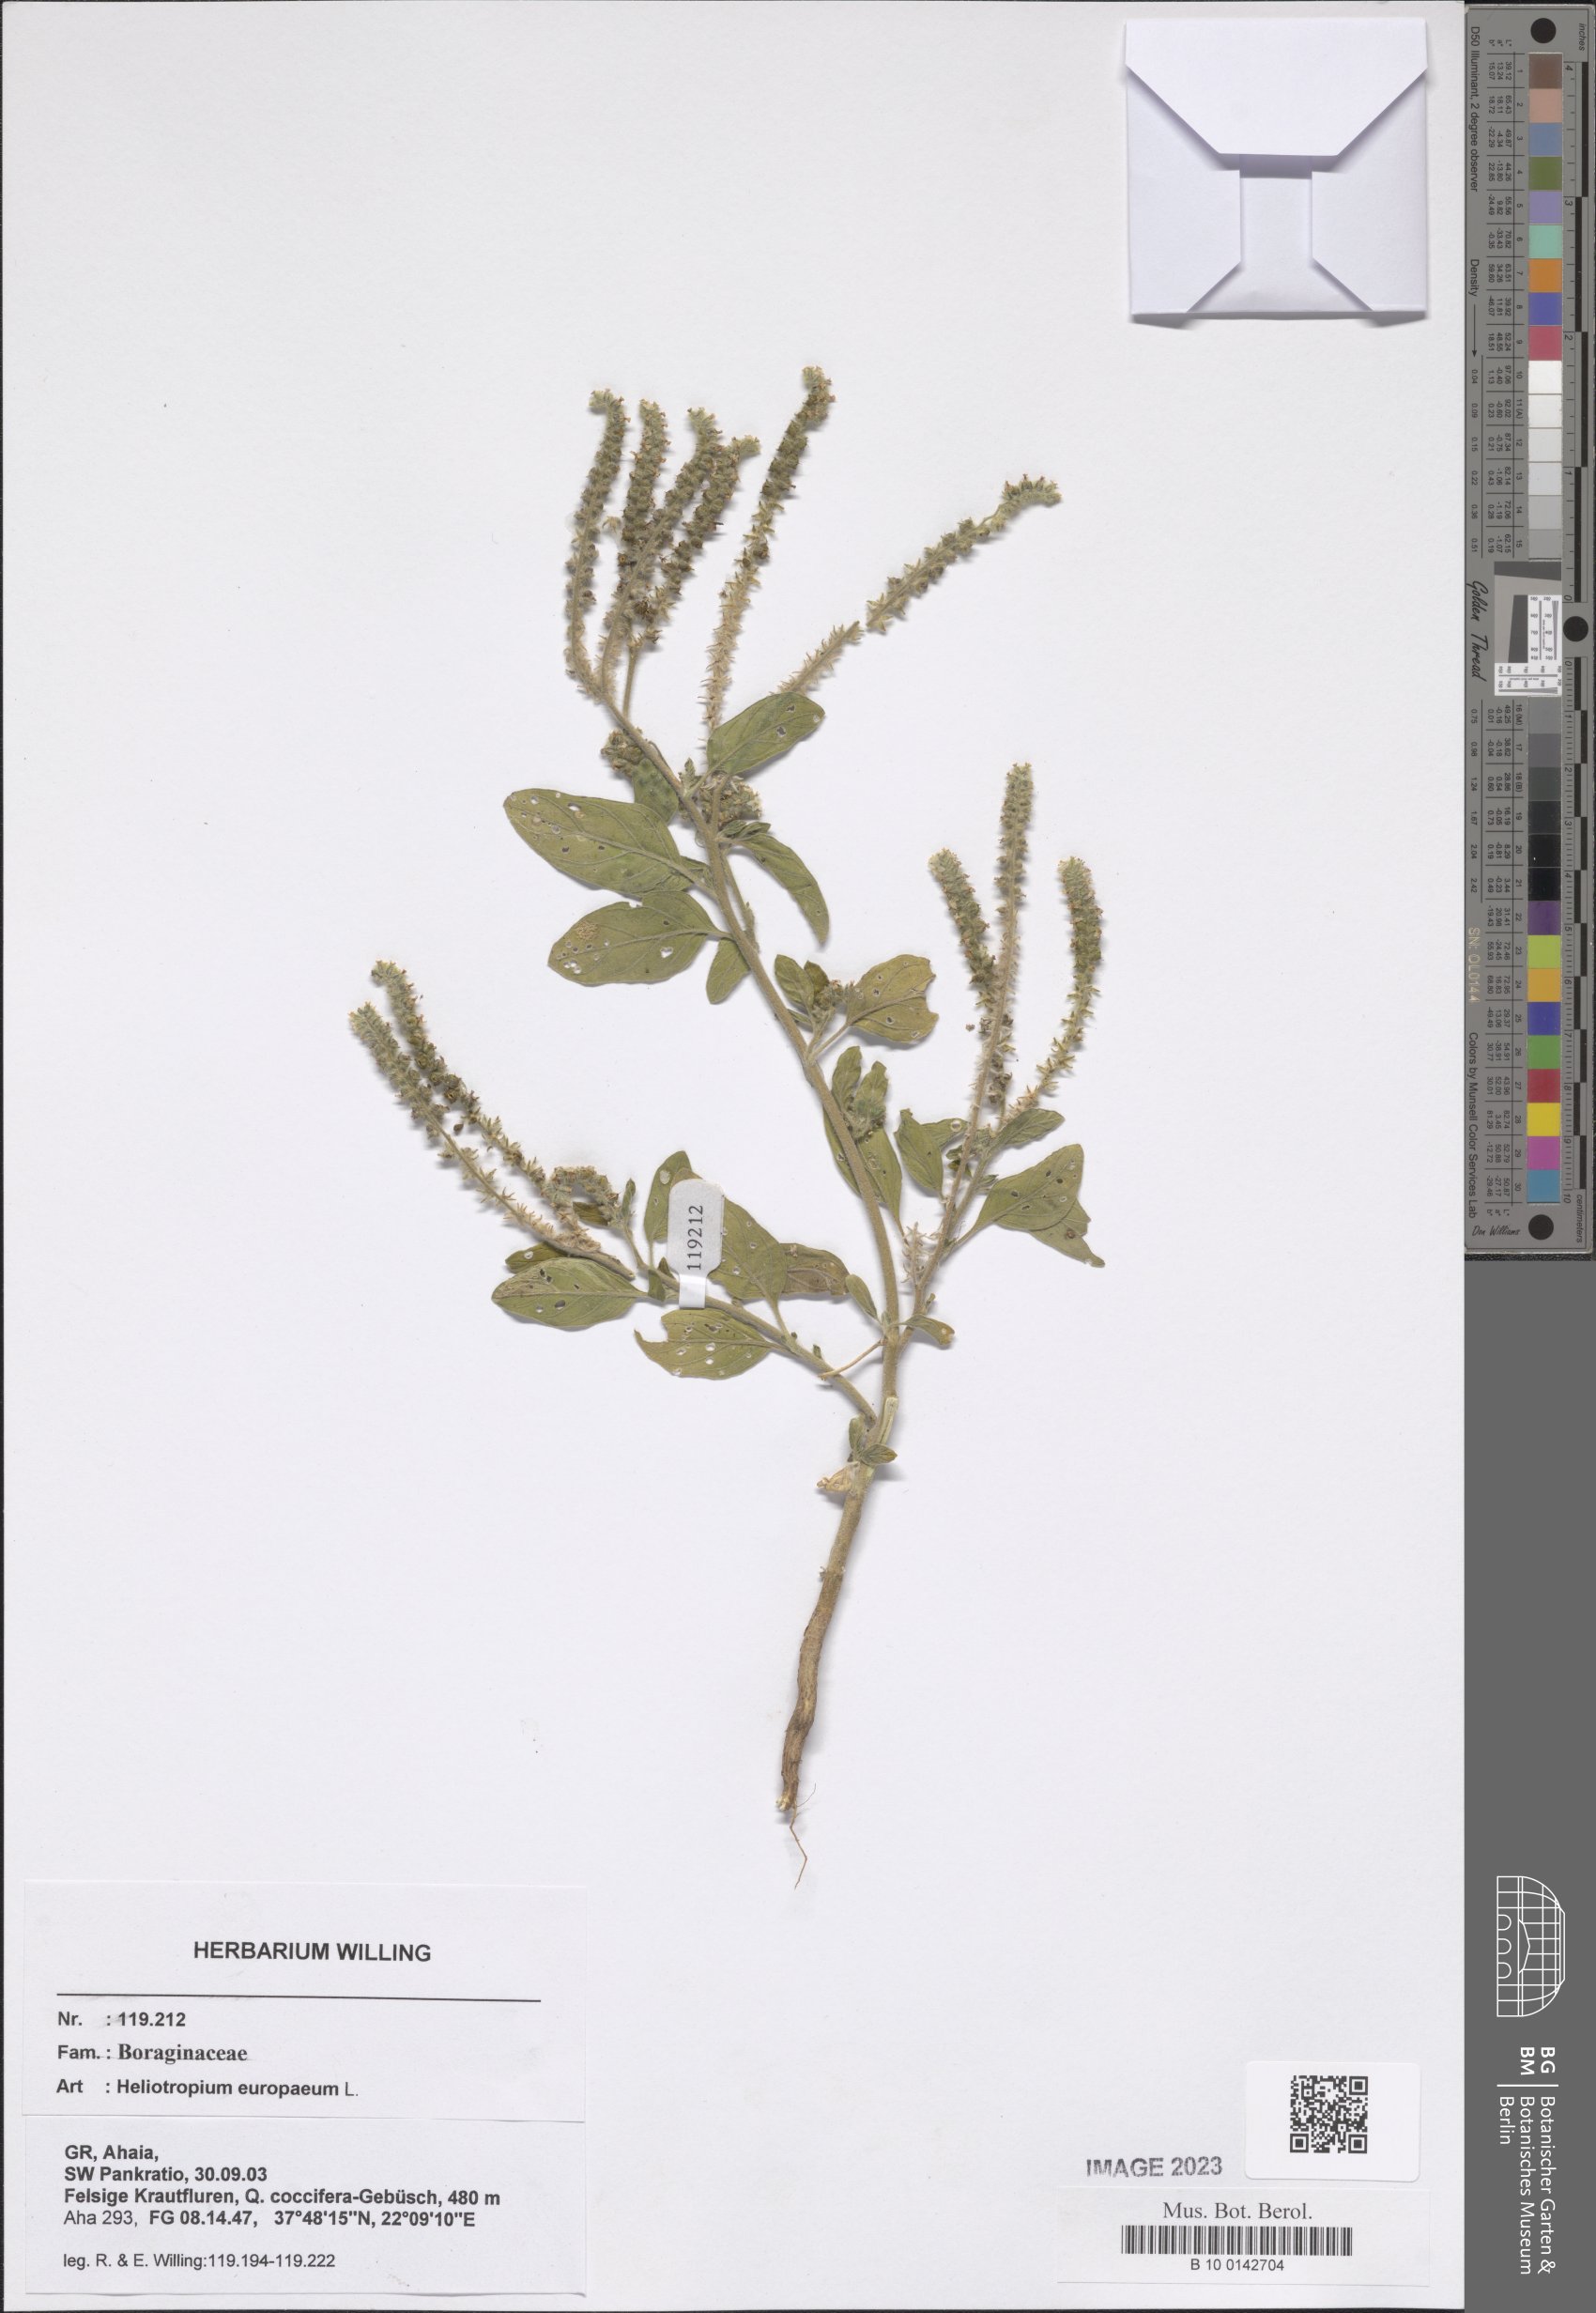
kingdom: Plantae
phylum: Tracheophyta
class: Magnoliopsida
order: Boraginales
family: Heliotropiaceae
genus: Heliotropium
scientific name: Heliotropium europaeum
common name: European heliotrope
